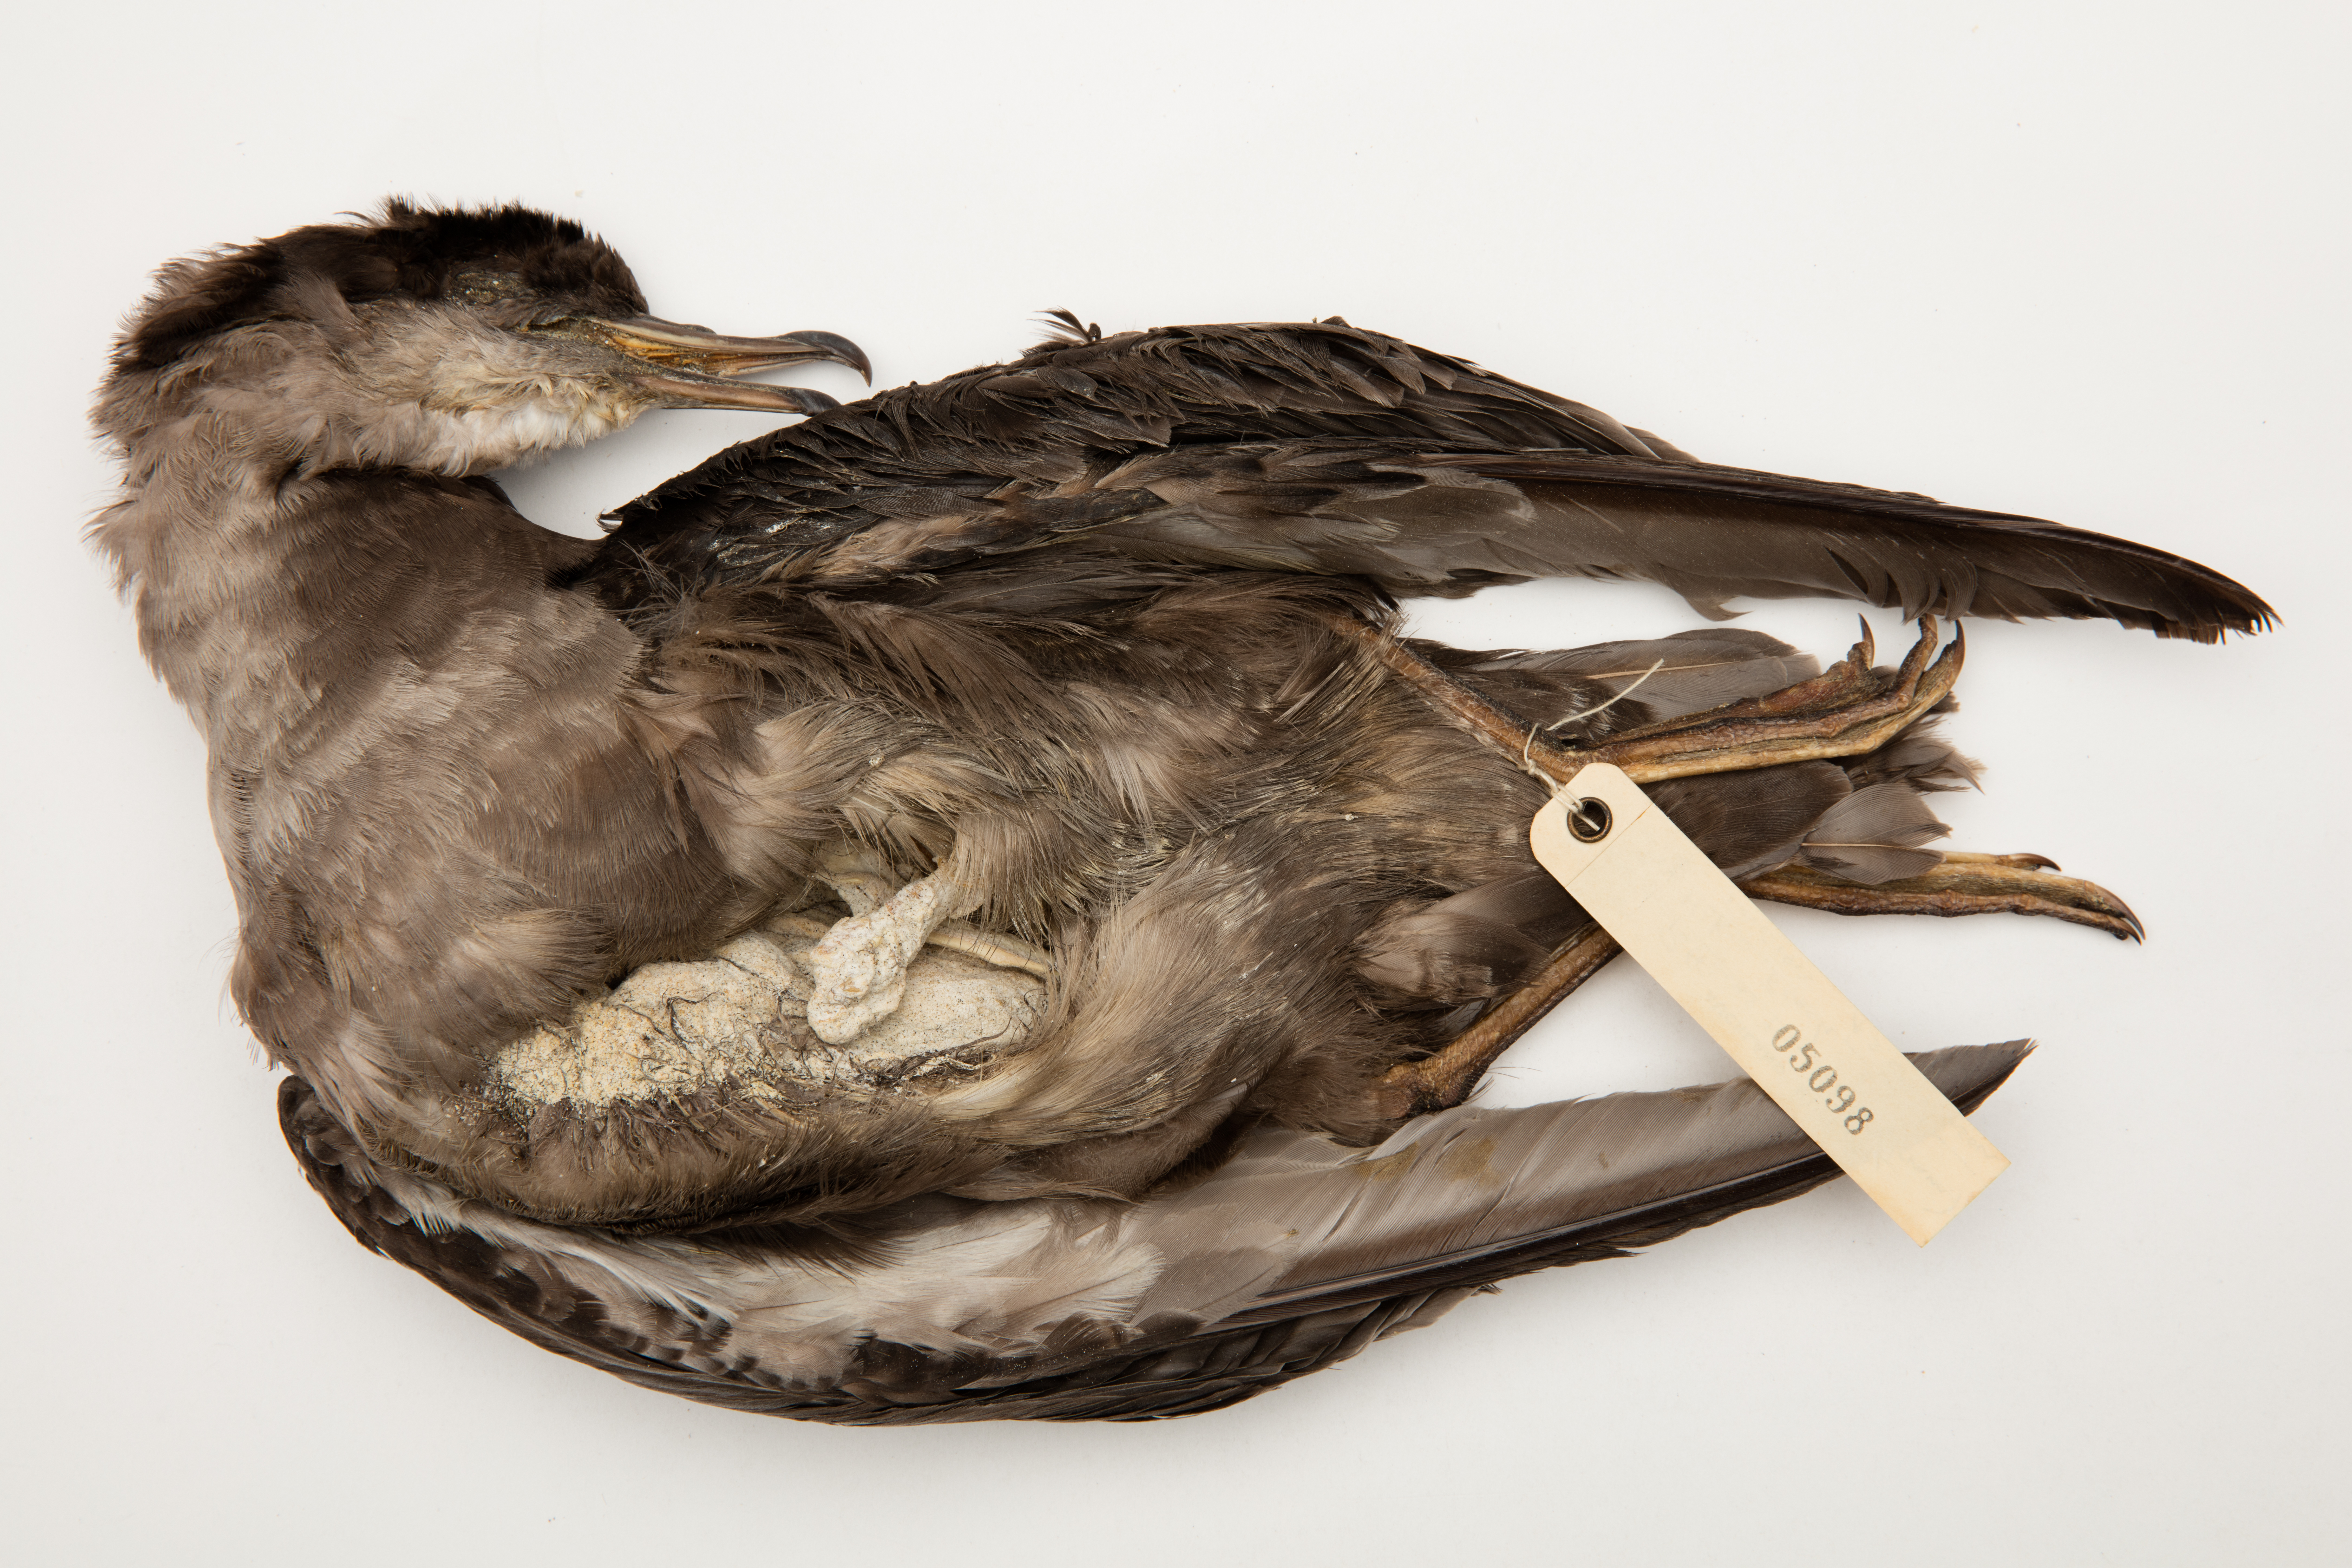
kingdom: Animalia
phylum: Chordata
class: Aves
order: Procellariiformes
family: Procellariidae
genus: Puffinus
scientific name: Puffinus tenuirostris
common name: Short-tailed shearwater
